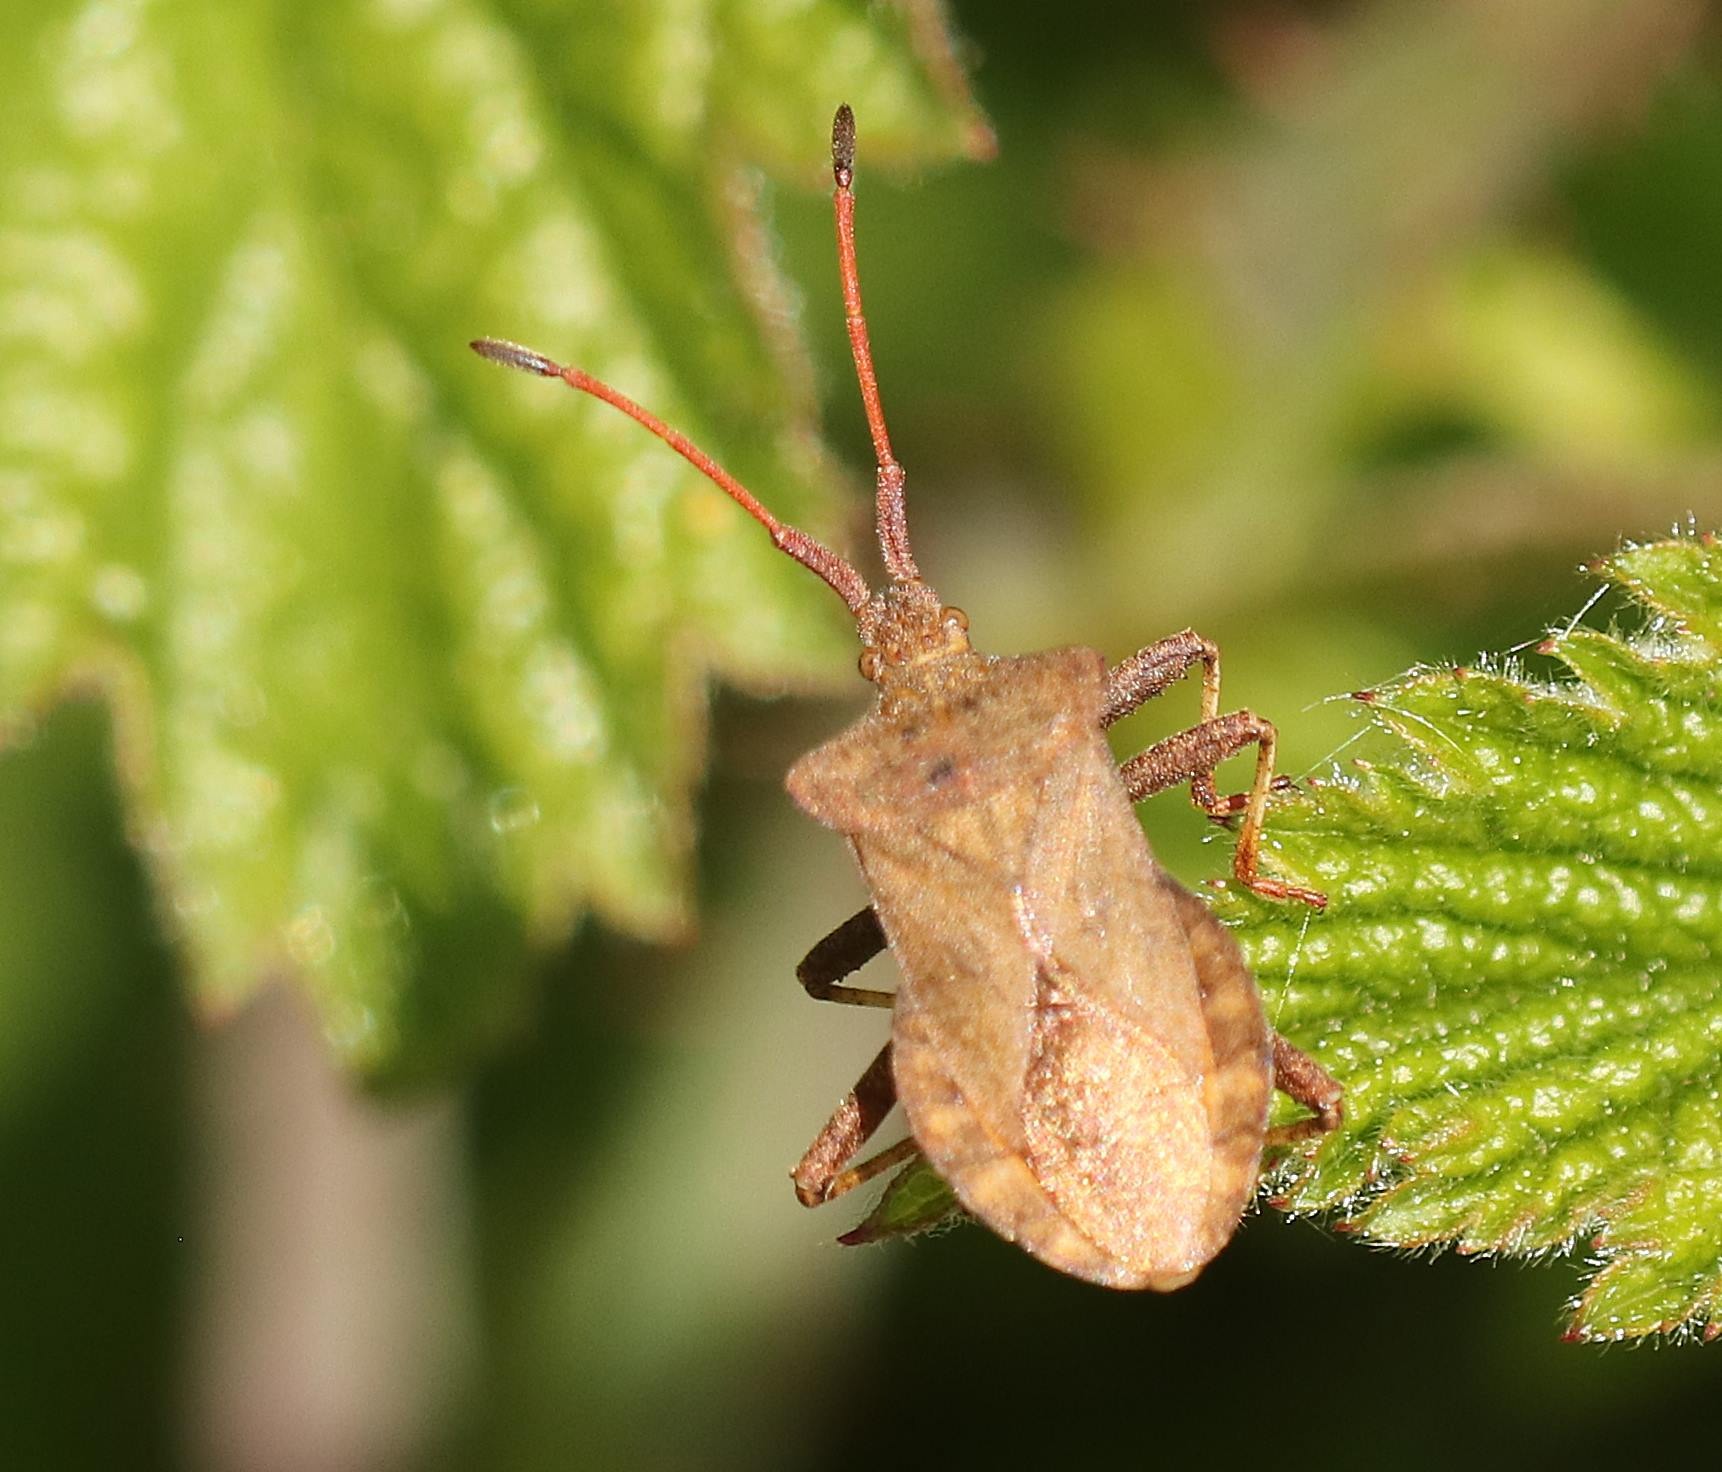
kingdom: Animalia
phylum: Arthropoda
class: Insecta
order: Hemiptera
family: Coreidae
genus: Coreus
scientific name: Coreus marginatus
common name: Skræppetæge
